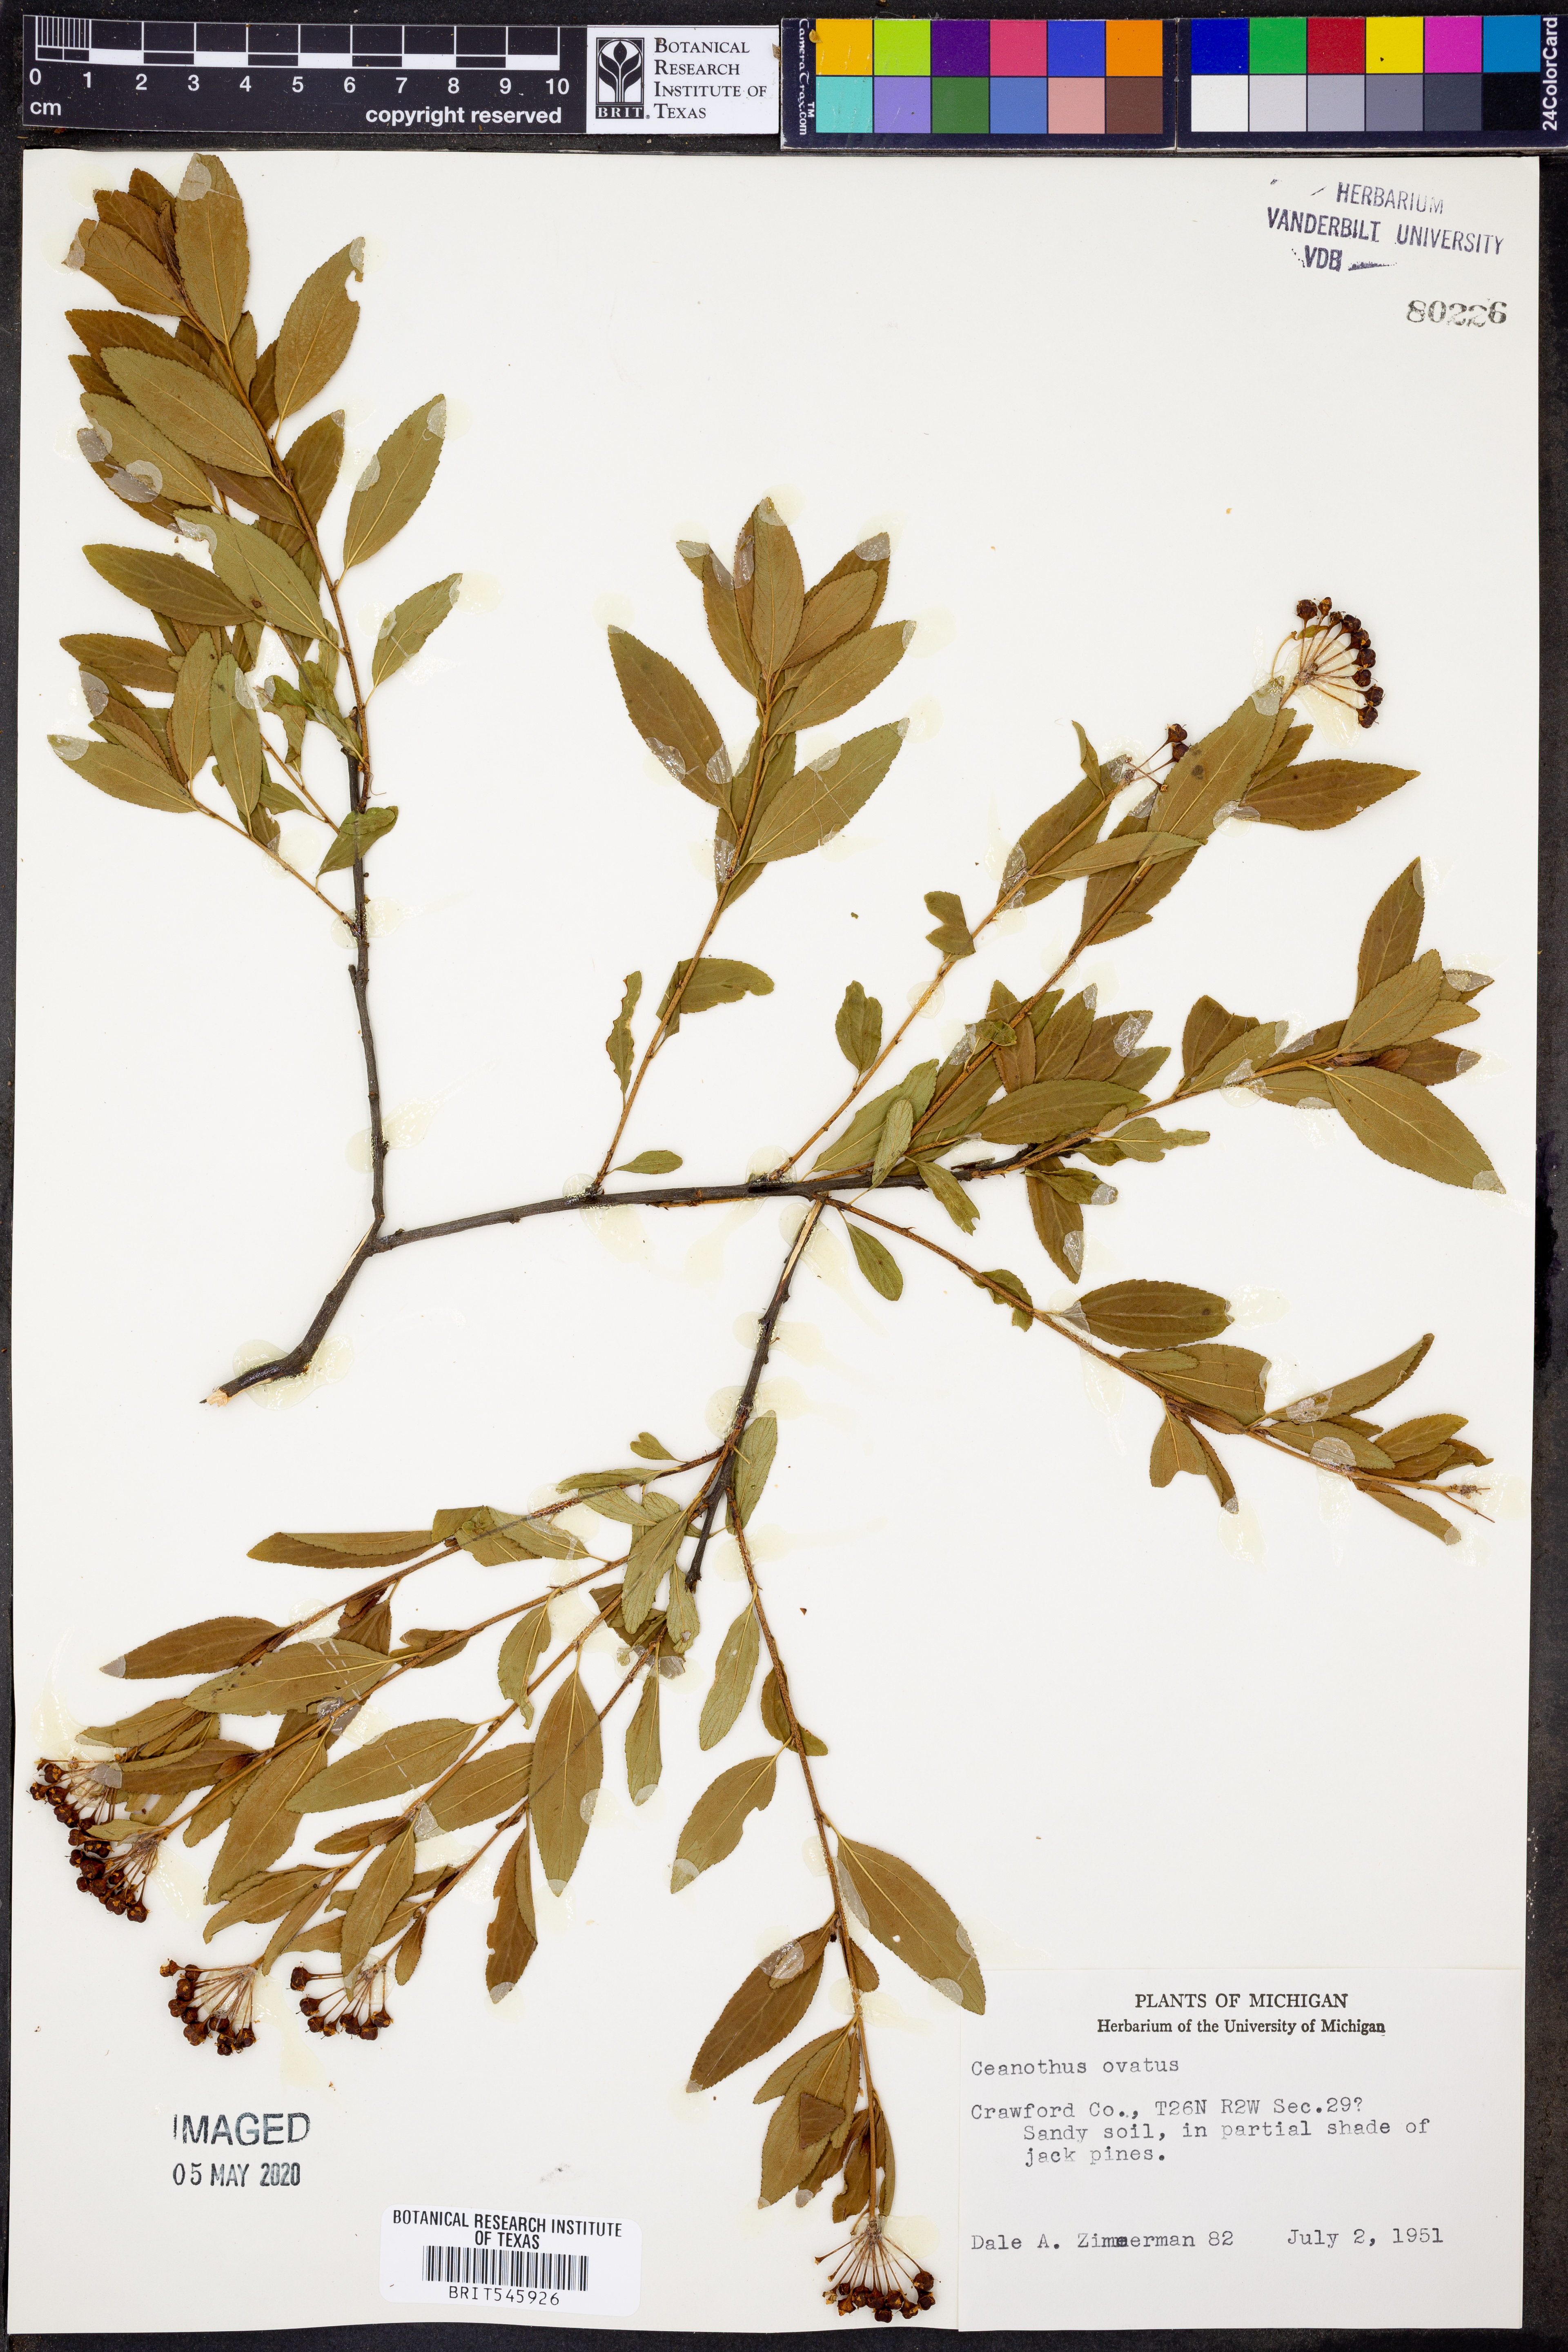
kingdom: Plantae
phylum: Tracheophyta
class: Magnoliopsida
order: Rosales
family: Rhamnaceae
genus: Ceanothus
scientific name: Ceanothus herbaceus
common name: Inland ceanothus
